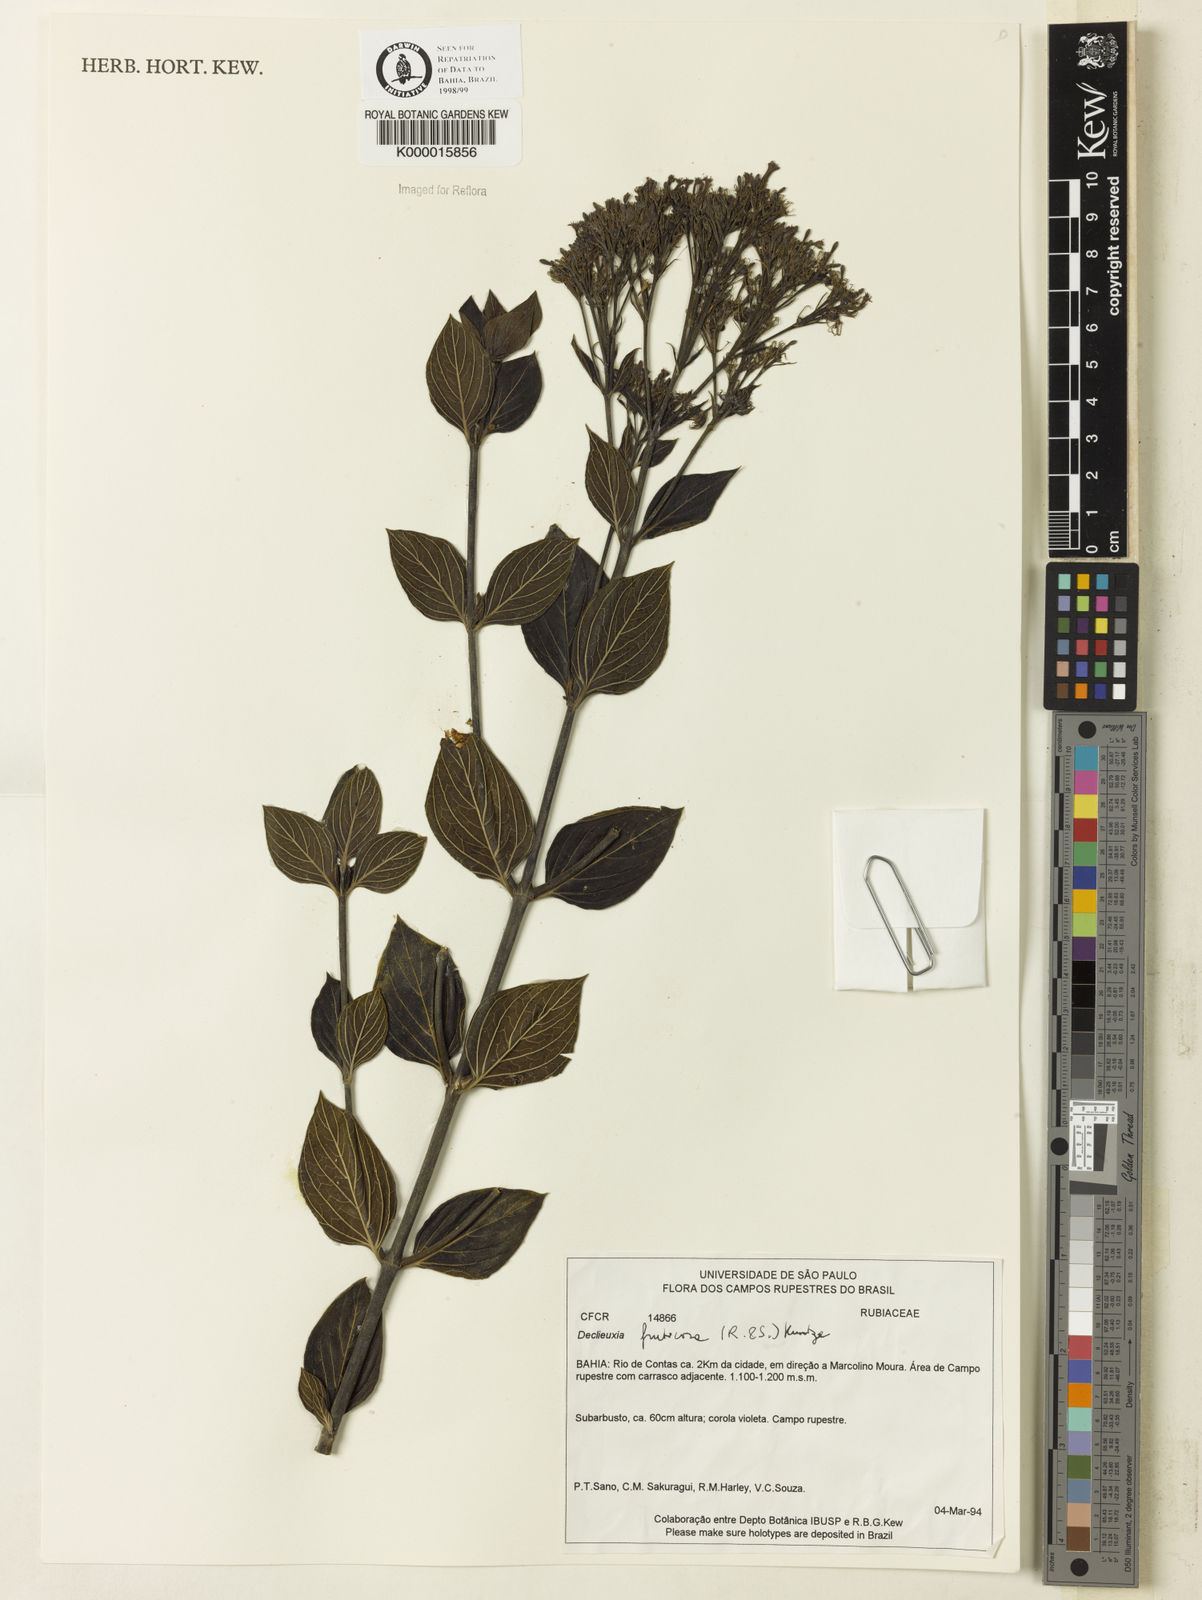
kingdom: Plantae
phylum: Tracheophyta
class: Magnoliopsida
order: Gentianales
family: Rubiaceae
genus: Declieuxia
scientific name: Declieuxia fruticosa
